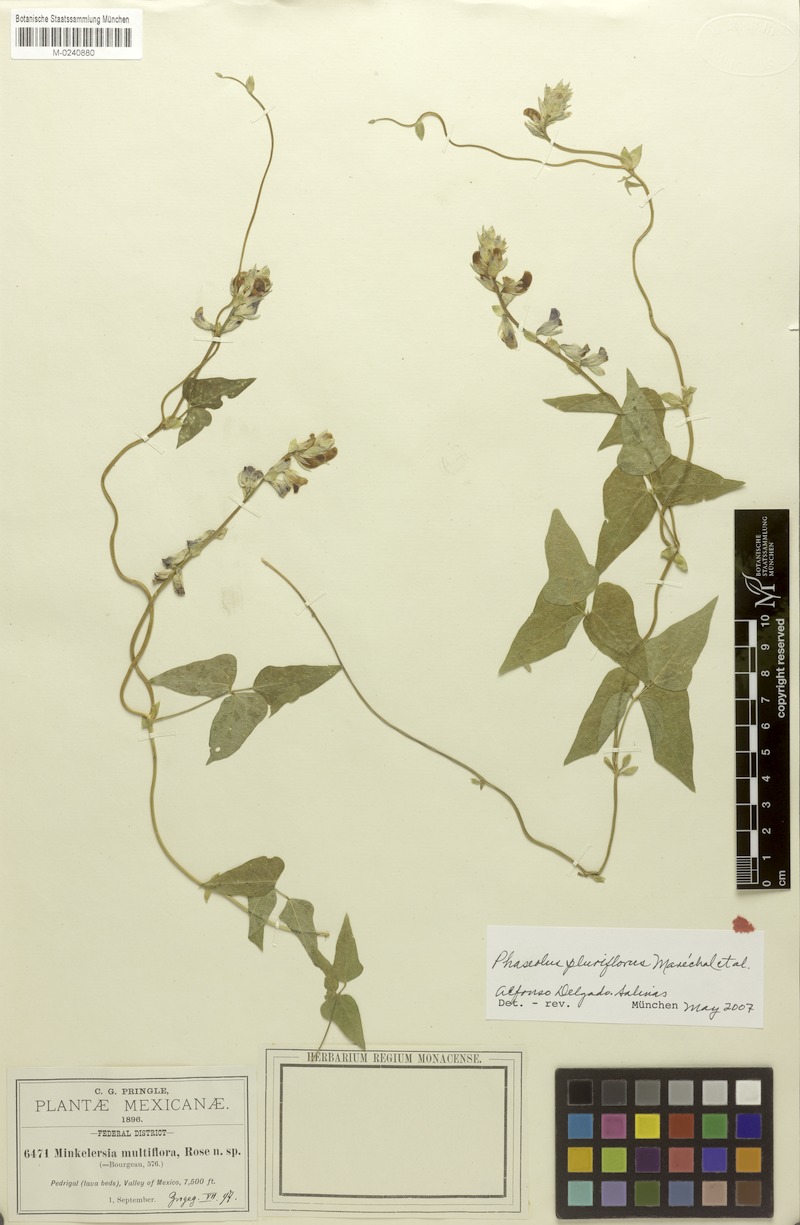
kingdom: Plantae
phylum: Tracheophyta
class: Magnoliopsida
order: Fabales
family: Fabaceae
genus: Phaseolus
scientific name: Phaseolus vulcanicus
